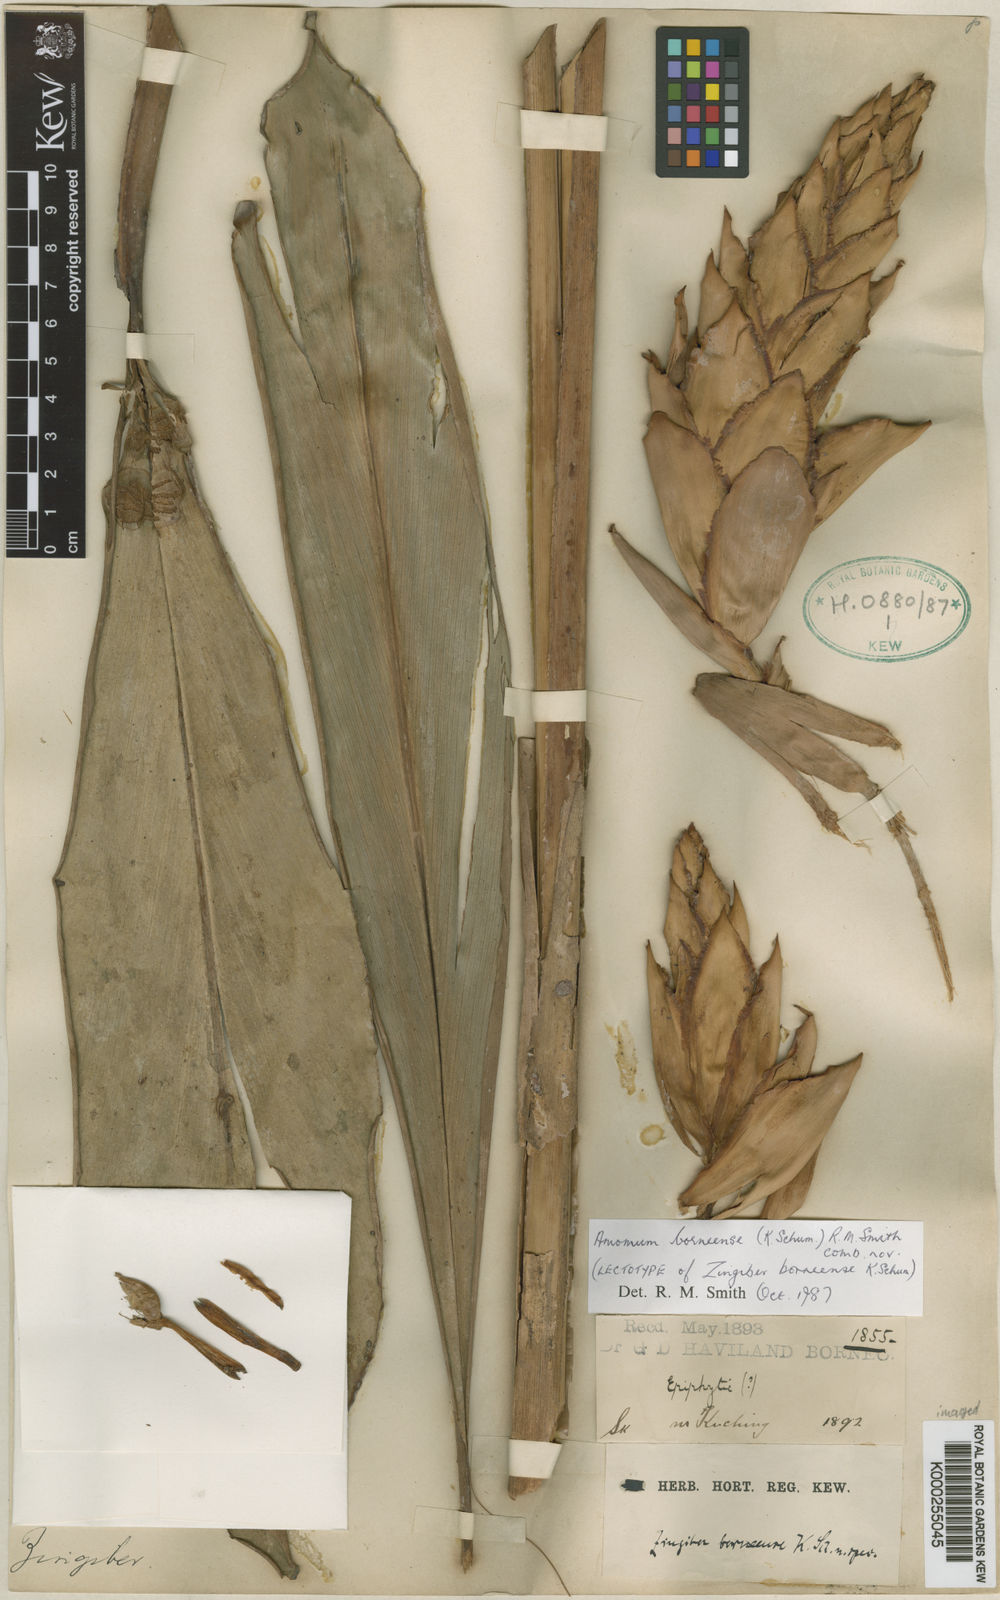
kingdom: Plantae
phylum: Tracheophyta
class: Liliopsida
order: Zingiberales
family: Zingiberaceae
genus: Epiamomum
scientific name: Epiamomum borneense
